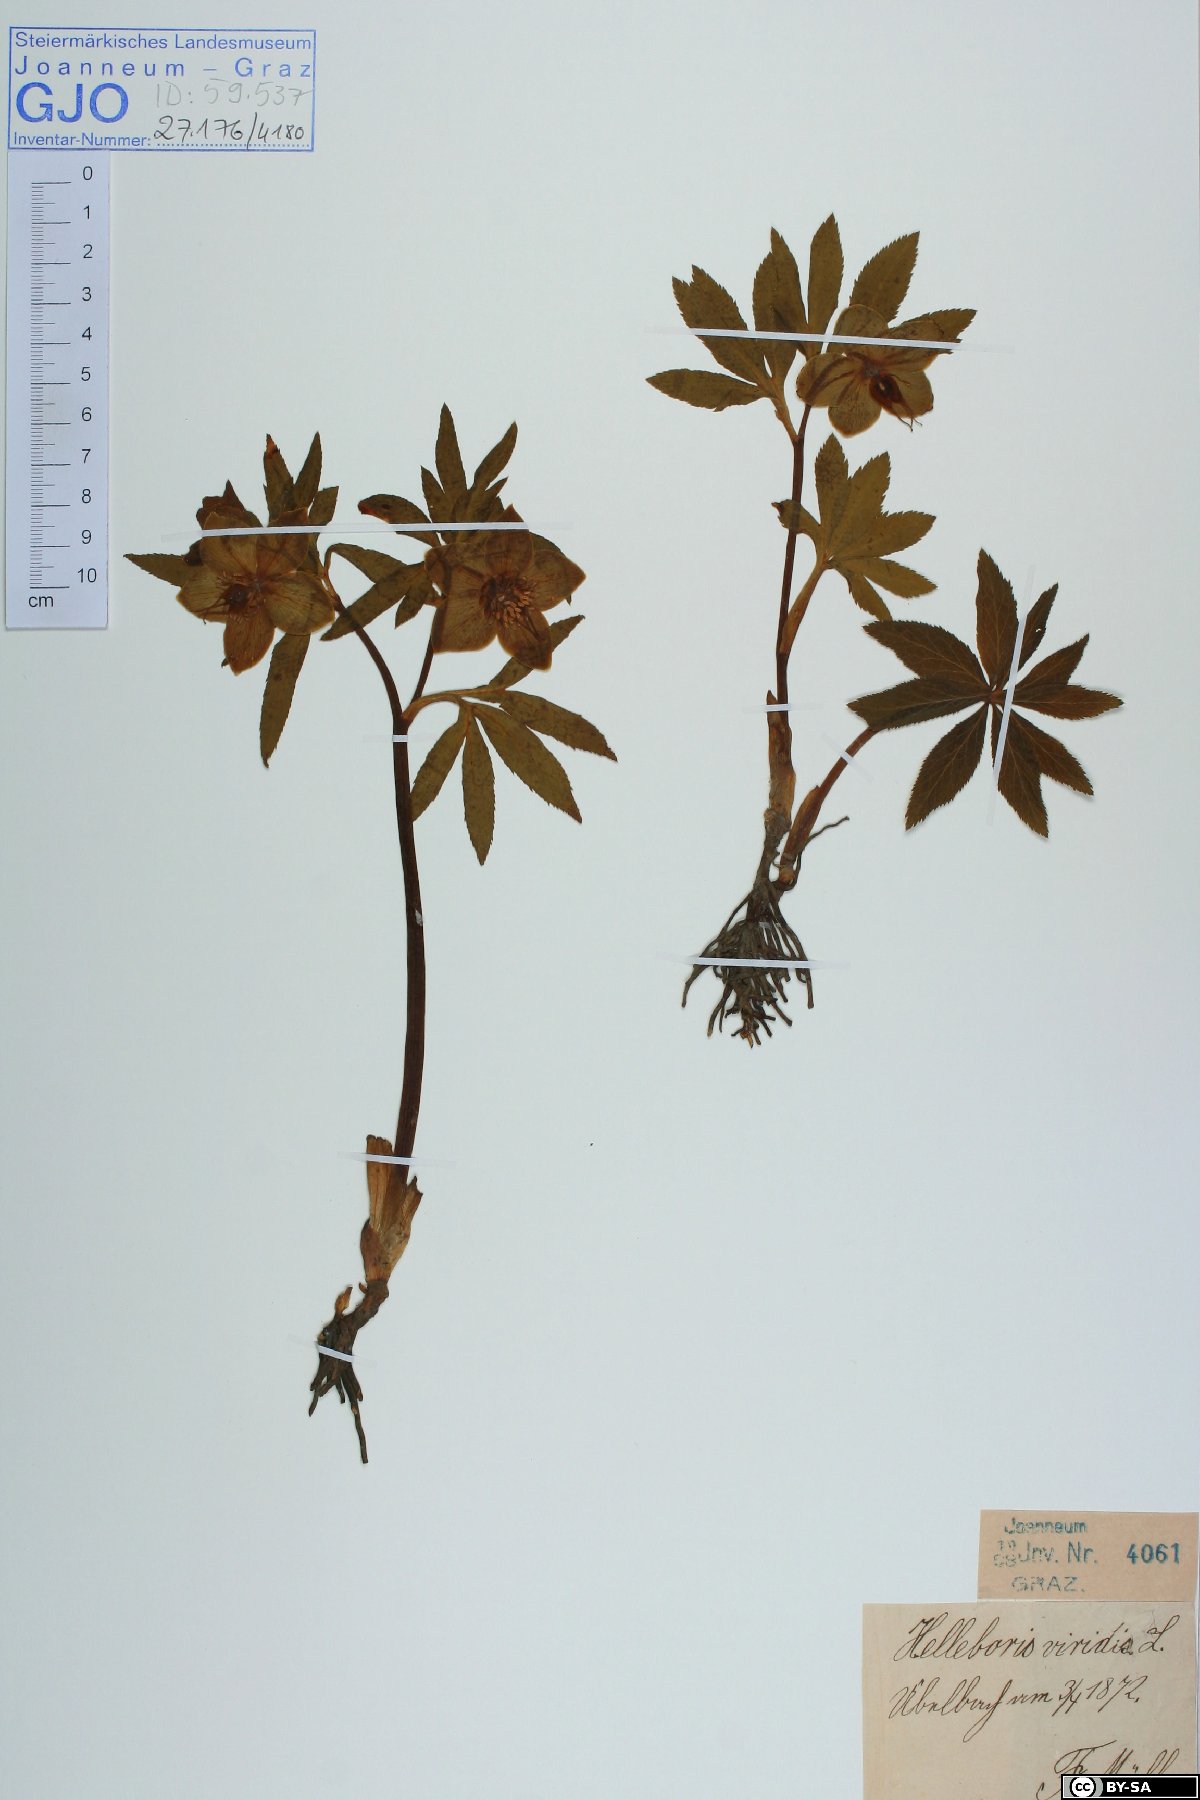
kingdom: Plantae
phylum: Tracheophyta
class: Magnoliopsida
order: Ranunculales
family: Ranunculaceae
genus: Helleborus
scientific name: Helleborus dumetorum
